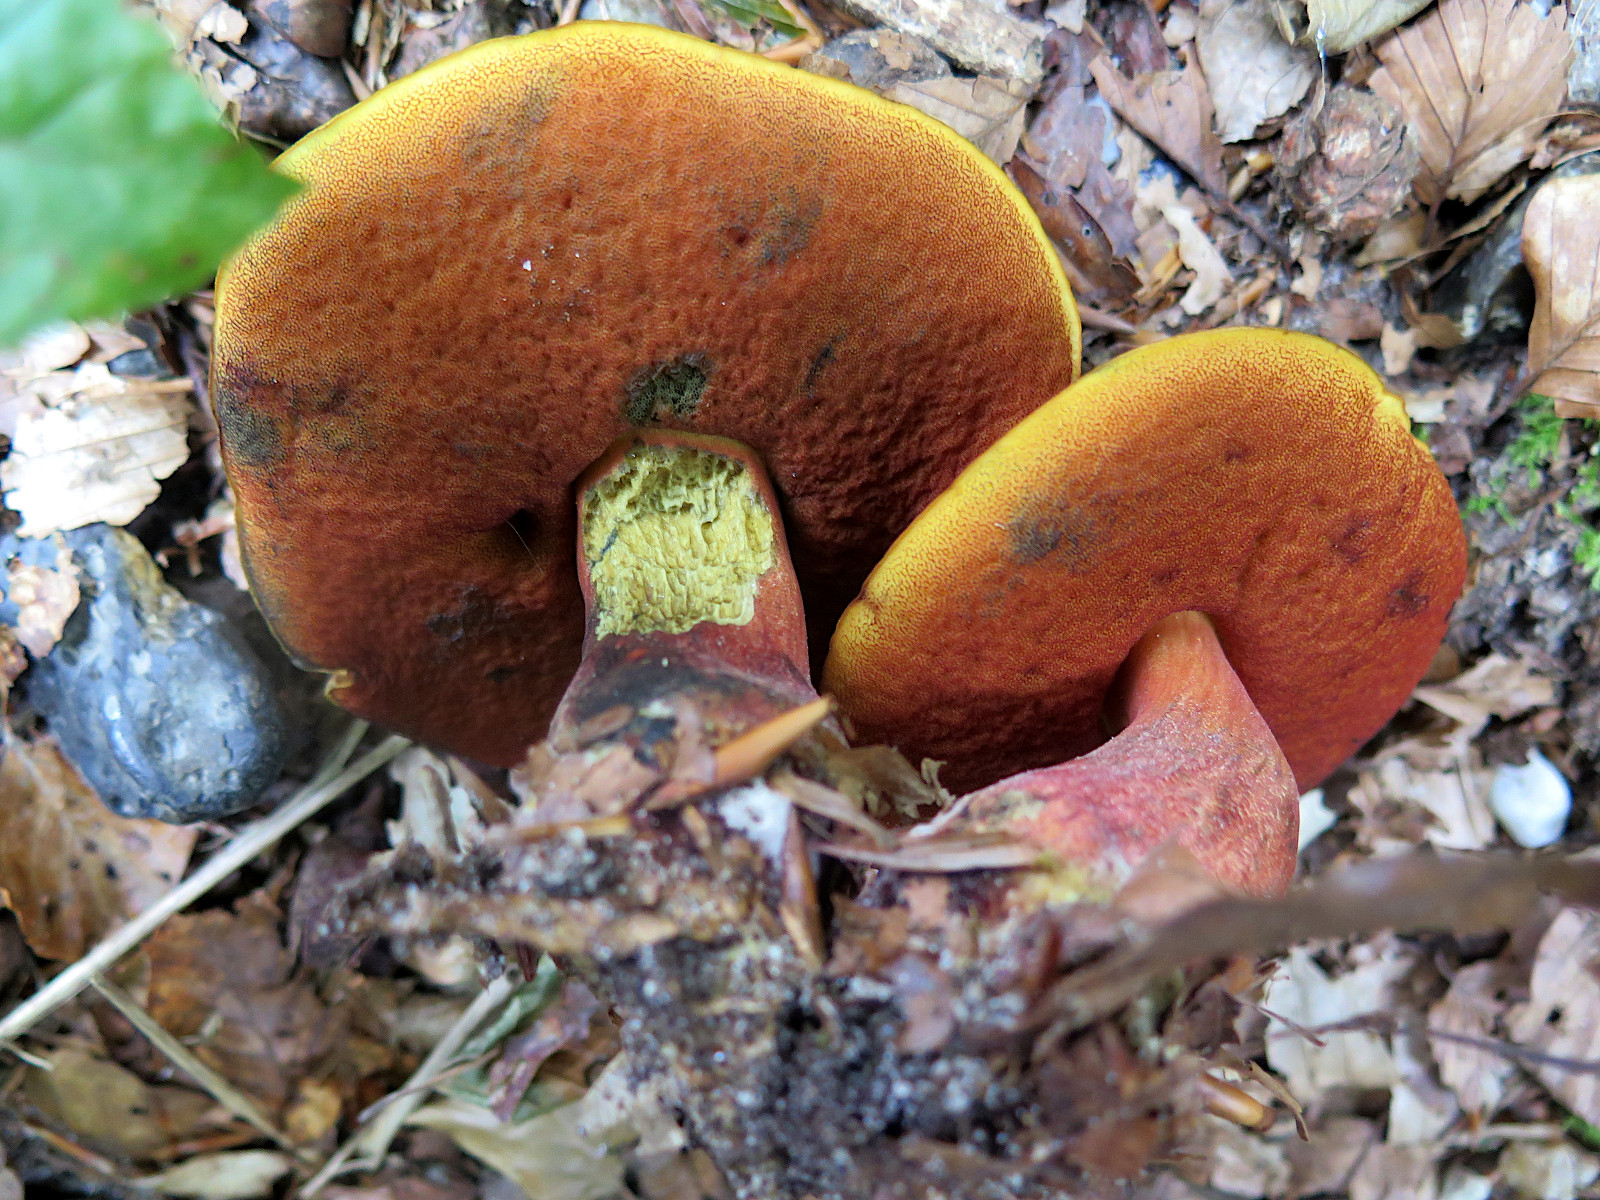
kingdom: Fungi
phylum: Basidiomycota
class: Agaricomycetes
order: Boletales
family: Boletaceae
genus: Neoboletus
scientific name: Neoboletus erythropus
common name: punktstokket indigorørhat
